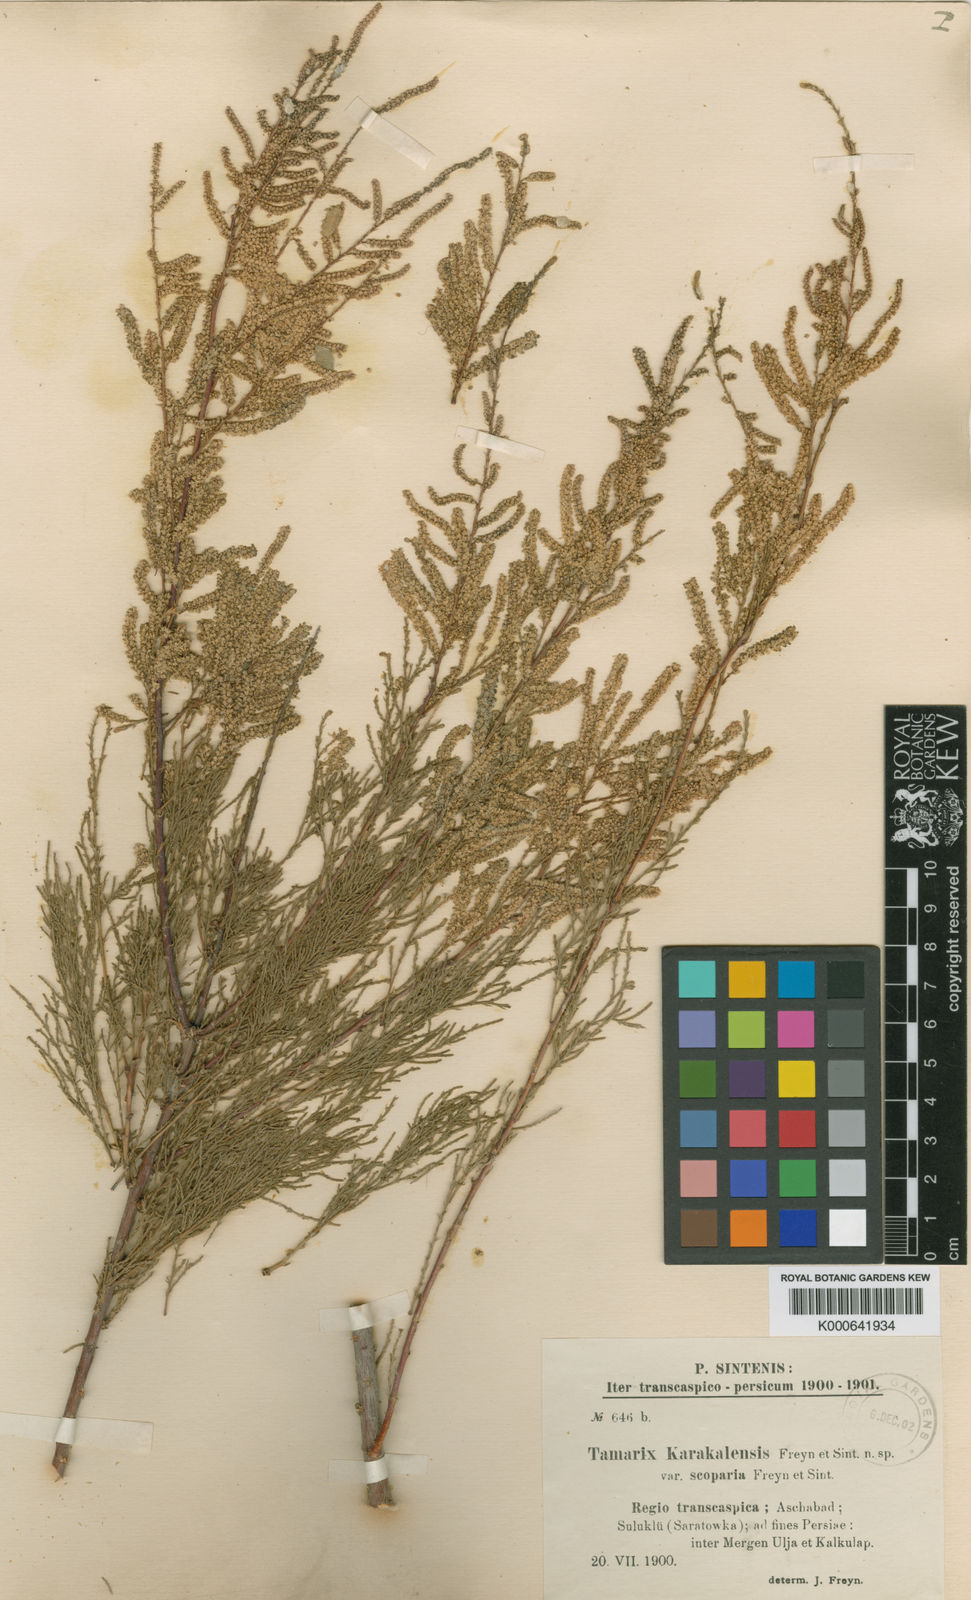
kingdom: Plantae
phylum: Tracheophyta
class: Magnoliopsida
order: Caryophyllales
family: Tamaricaceae
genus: Tamarix
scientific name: Tamarix florida
